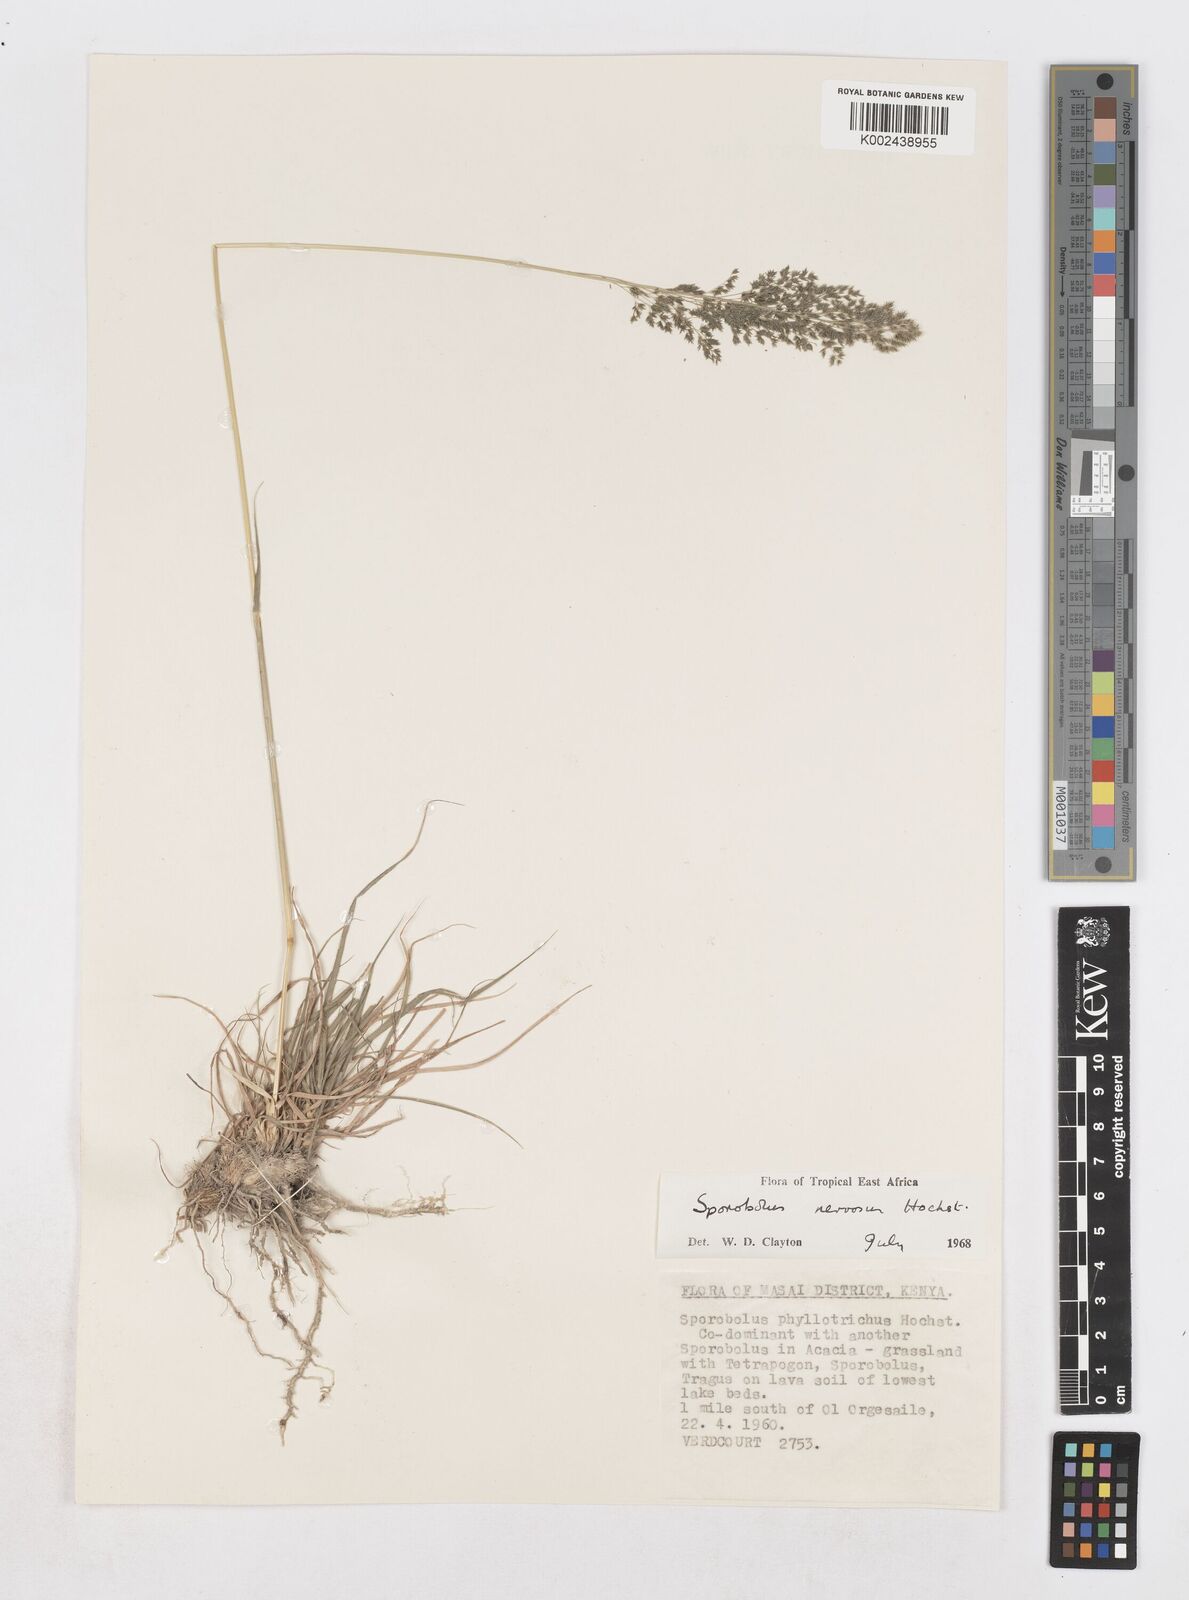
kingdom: Plantae
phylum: Tracheophyta
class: Liliopsida
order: Poales
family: Poaceae
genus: Sporobolus
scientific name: Sporobolus nervosus
